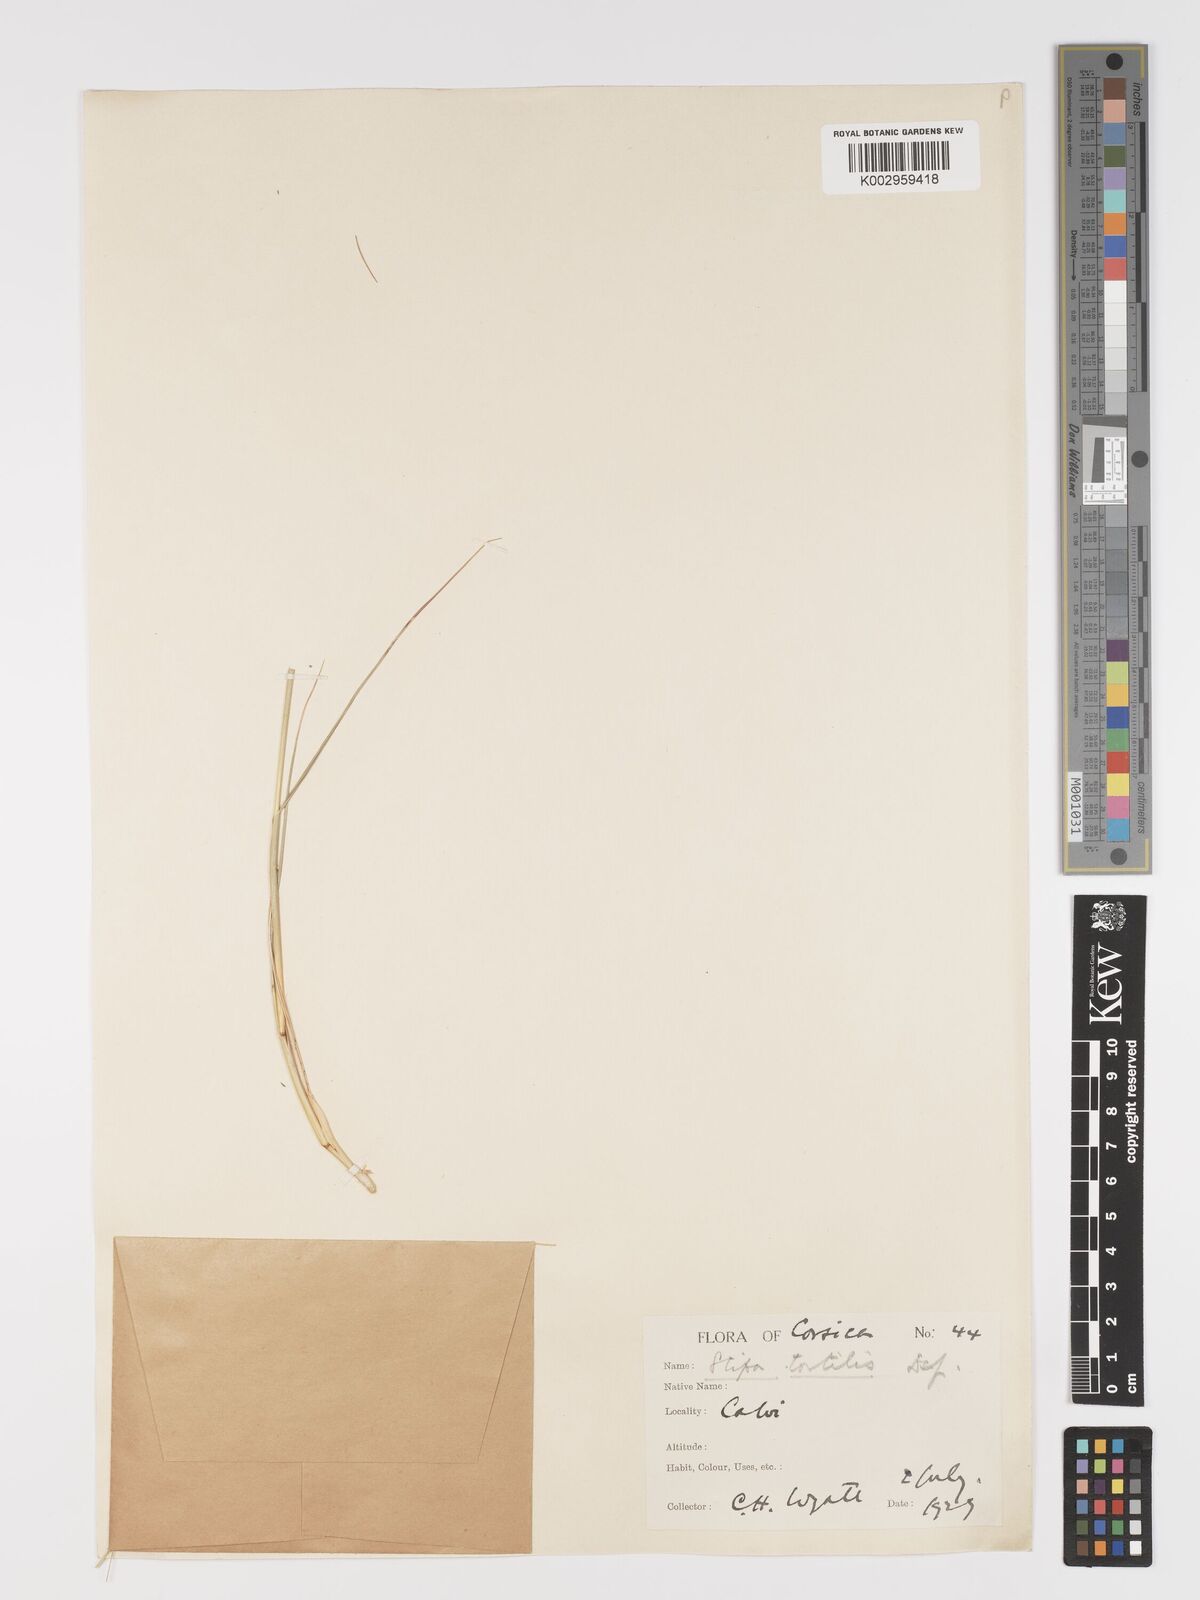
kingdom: Plantae
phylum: Tracheophyta
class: Liliopsida
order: Poales
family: Poaceae
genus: Stipa
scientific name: Stipa
